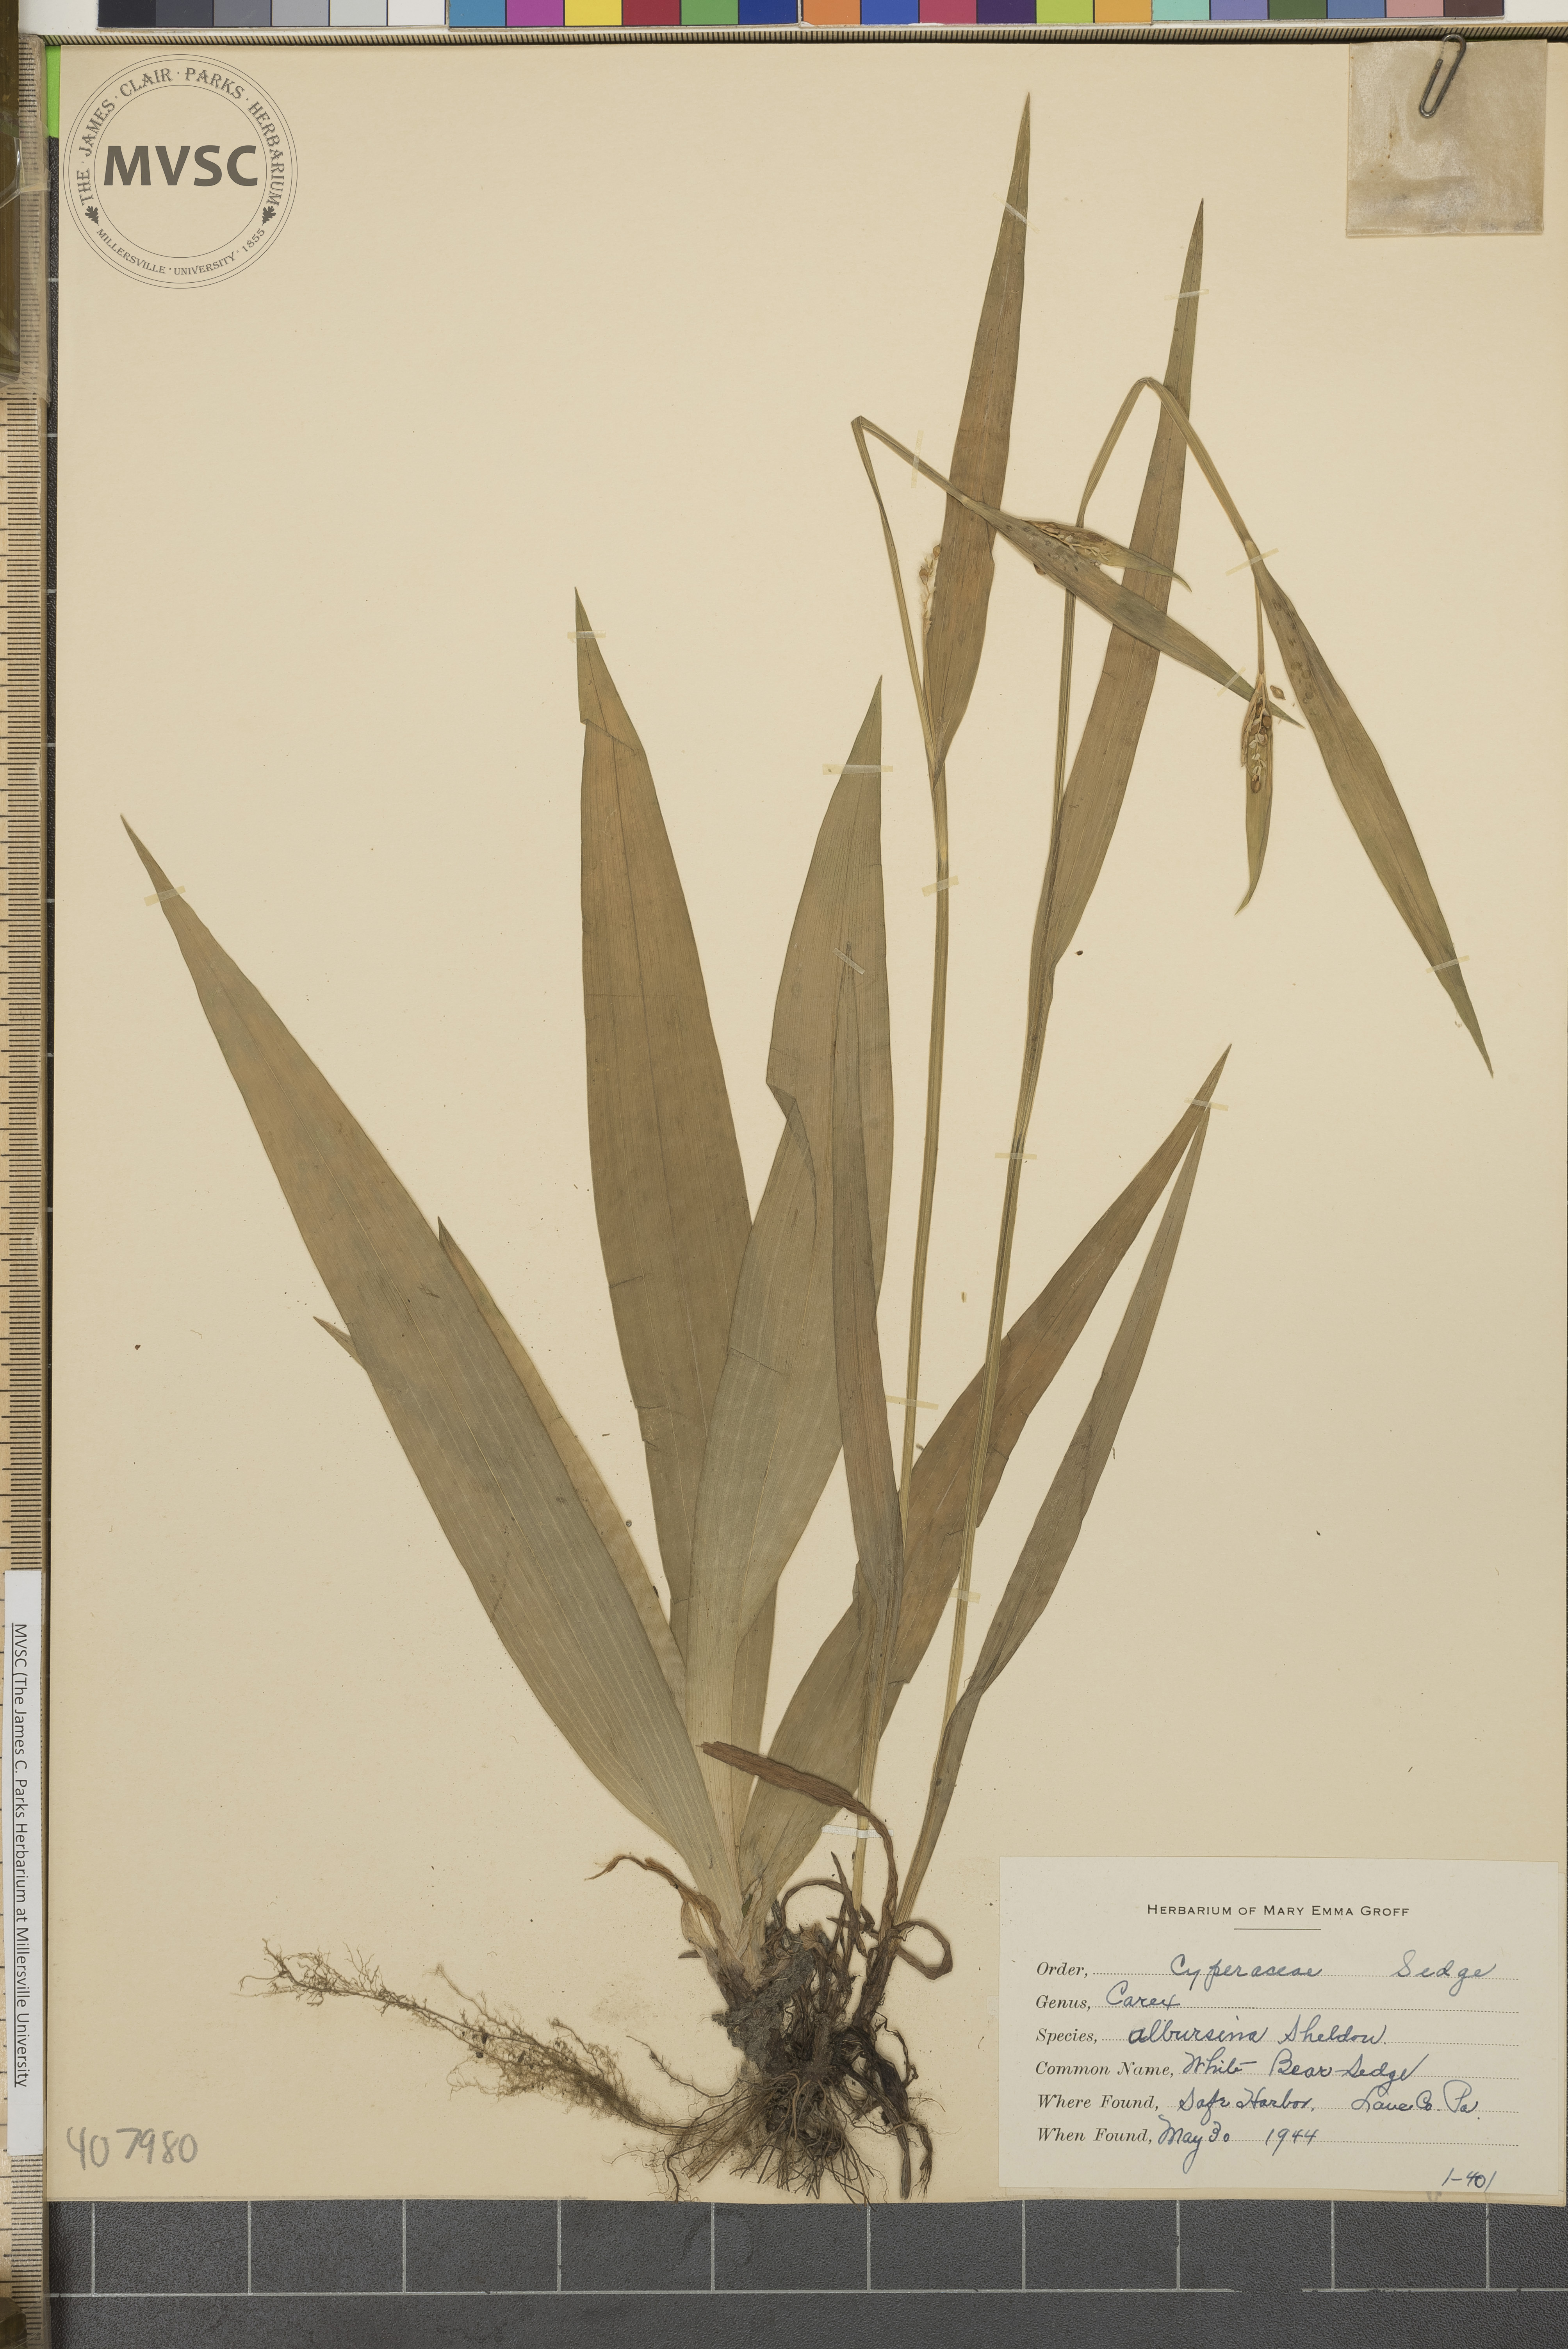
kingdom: Plantae
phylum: Tracheophyta
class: Liliopsida
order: Poales
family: Cyperaceae
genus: Carex
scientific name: Carex albursina
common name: White Bear Sedge
